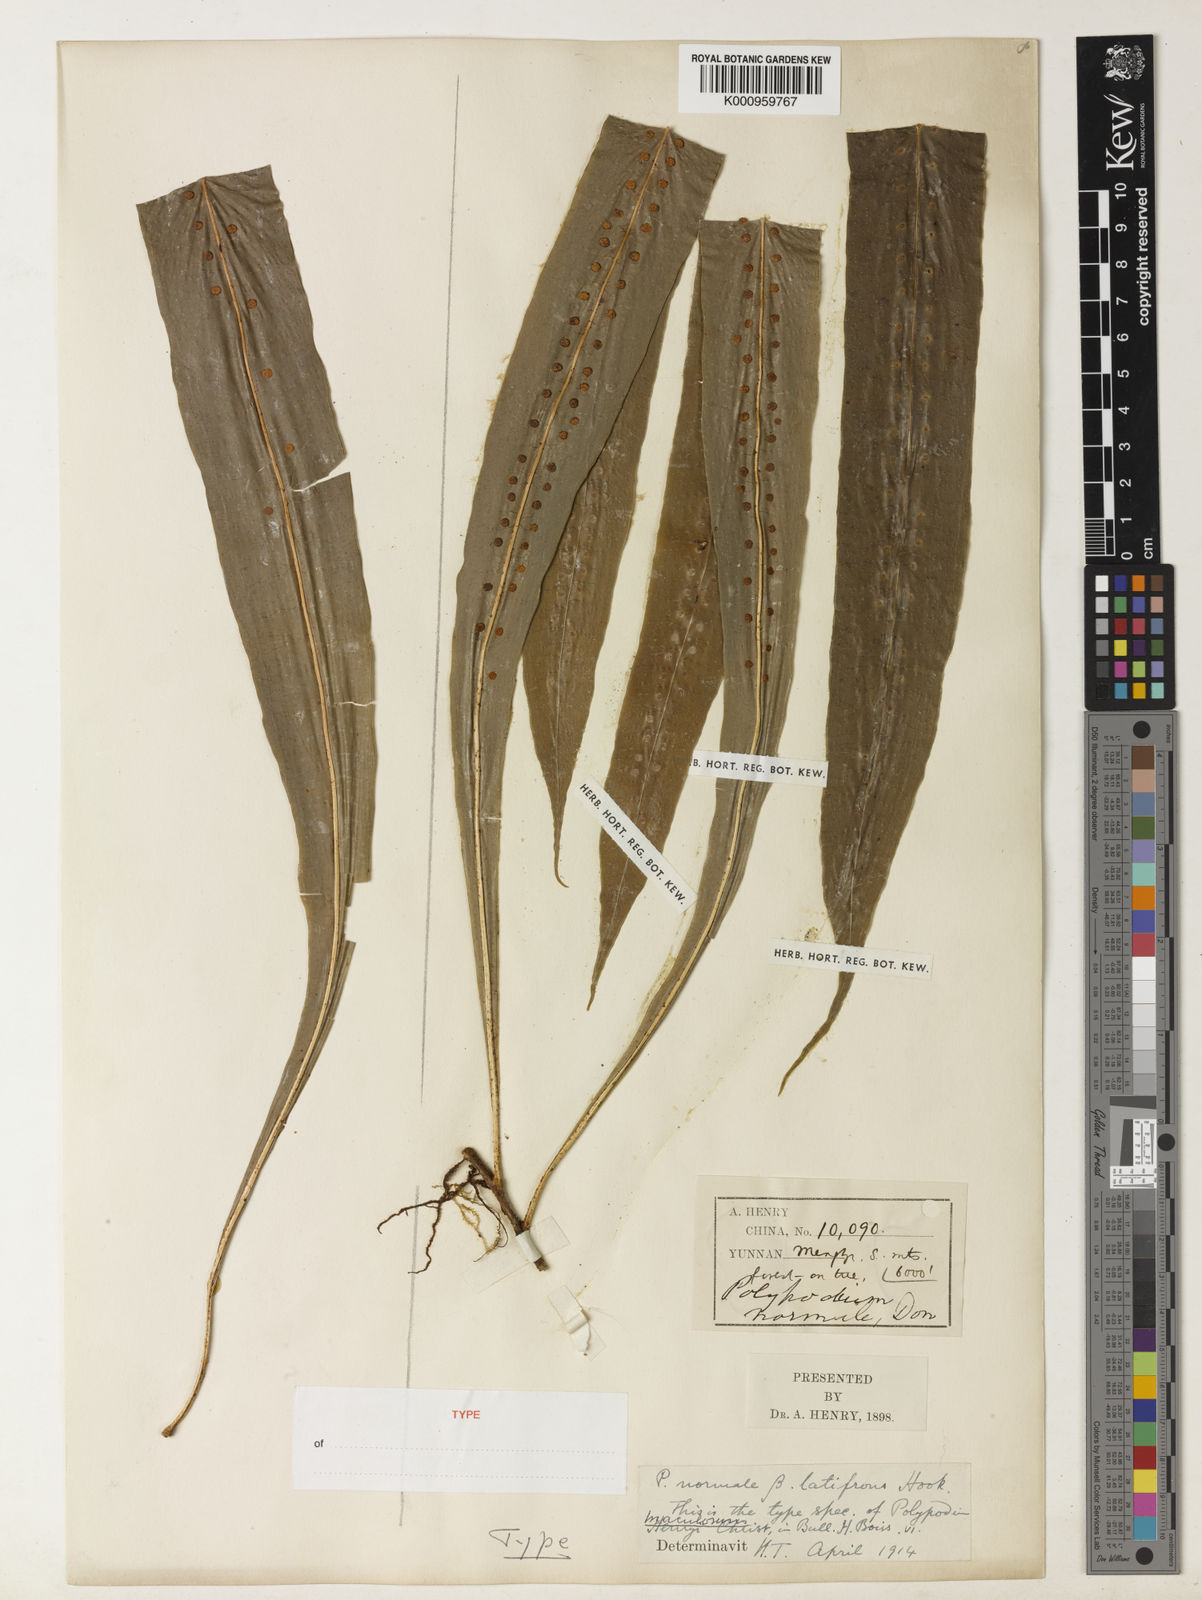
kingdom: Plantae
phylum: Tracheophyta
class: Polypodiopsida
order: Polypodiales
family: Polypodiaceae
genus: Lepisorus
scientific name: Lepisorus normalis
